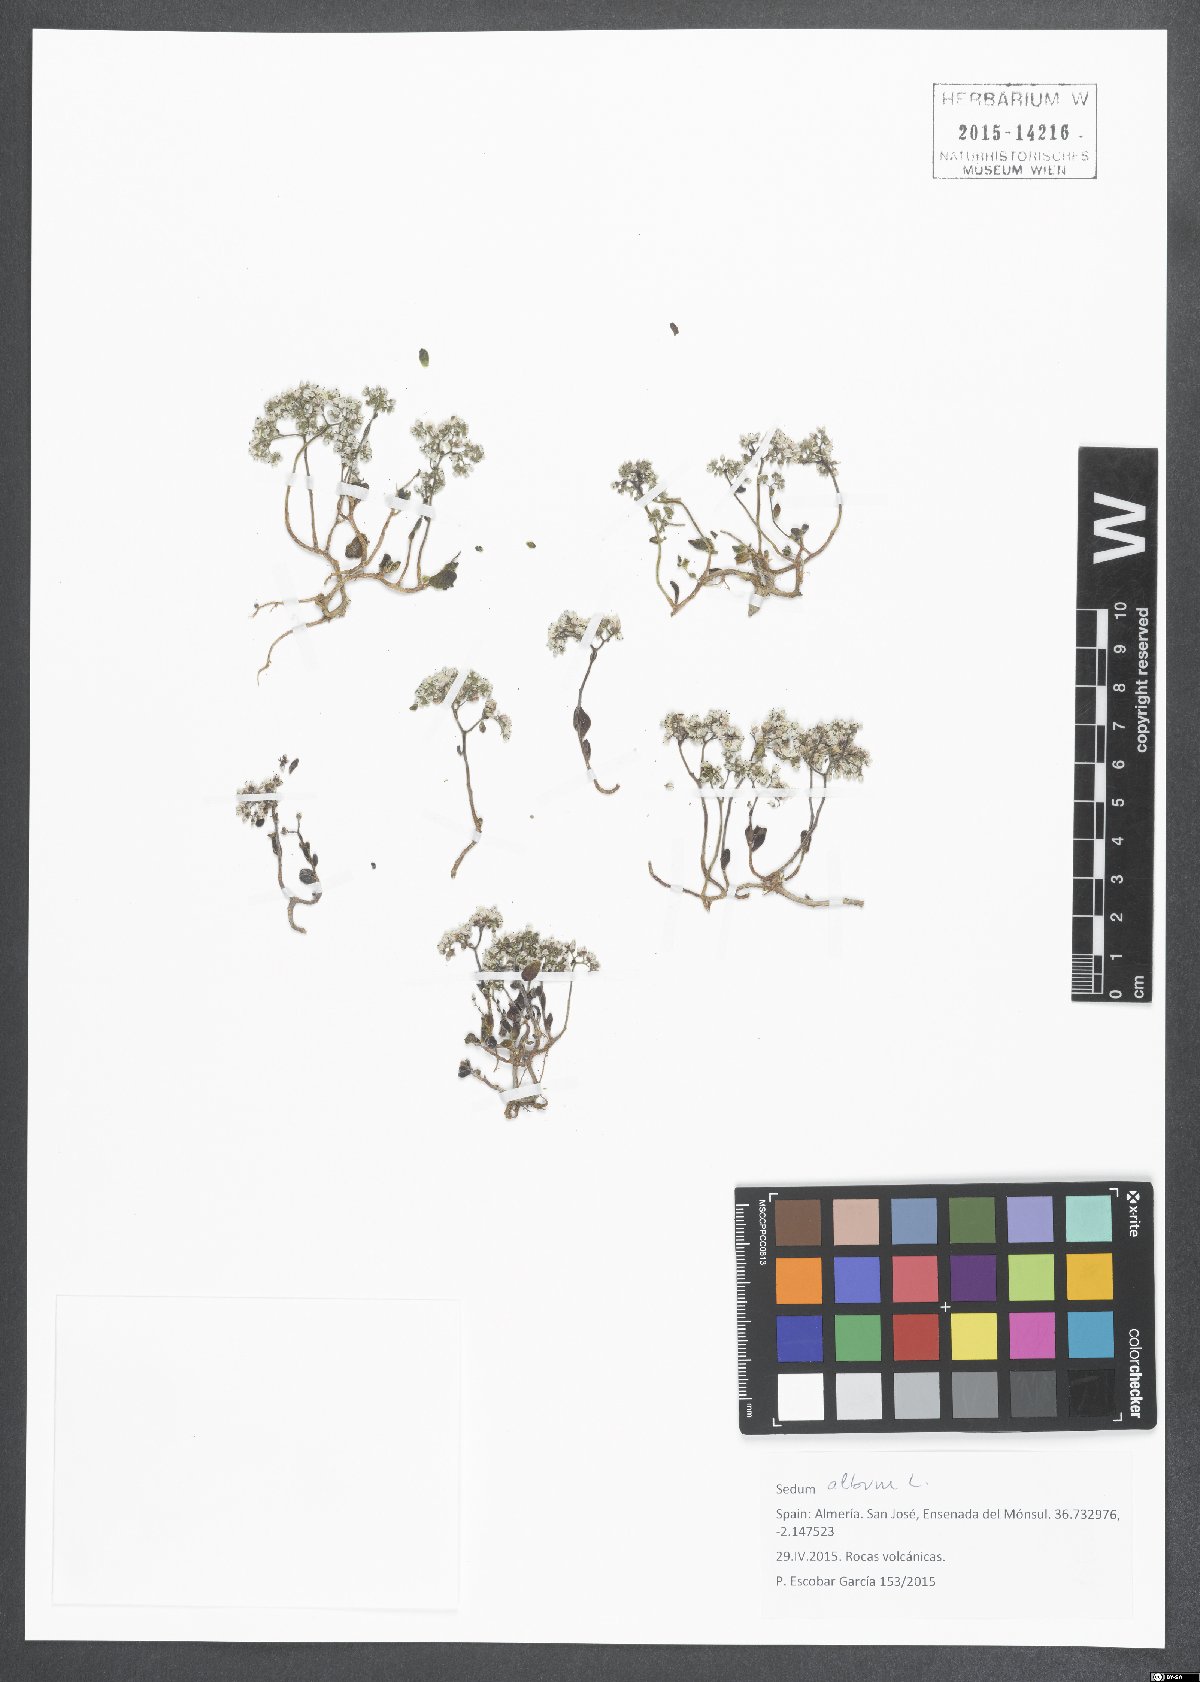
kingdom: Plantae
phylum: Tracheophyta
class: Magnoliopsida
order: Saxifragales
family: Crassulaceae
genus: Sedum
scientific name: Sedum album
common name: White stonecrop
